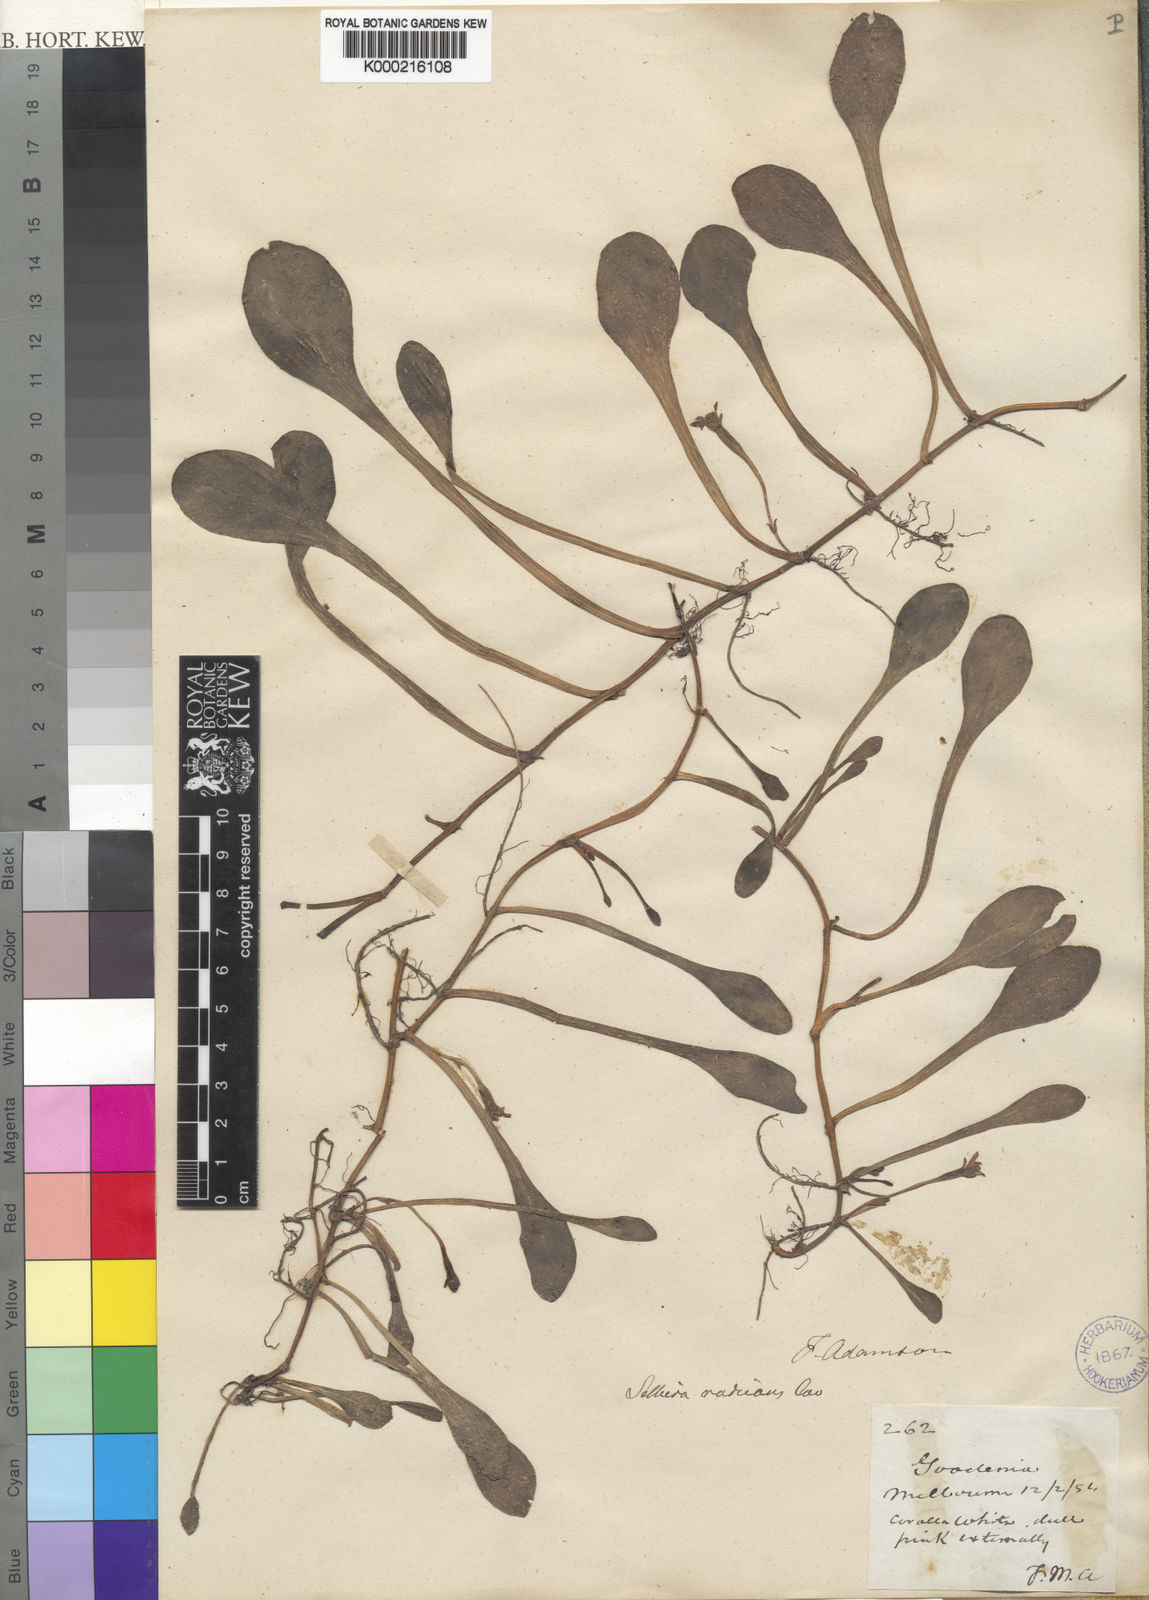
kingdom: Plantae
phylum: Tracheophyta
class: Magnoliopsida
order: Asterales
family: Goodeniaceae
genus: Goodenia
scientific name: Goodenia radicans
